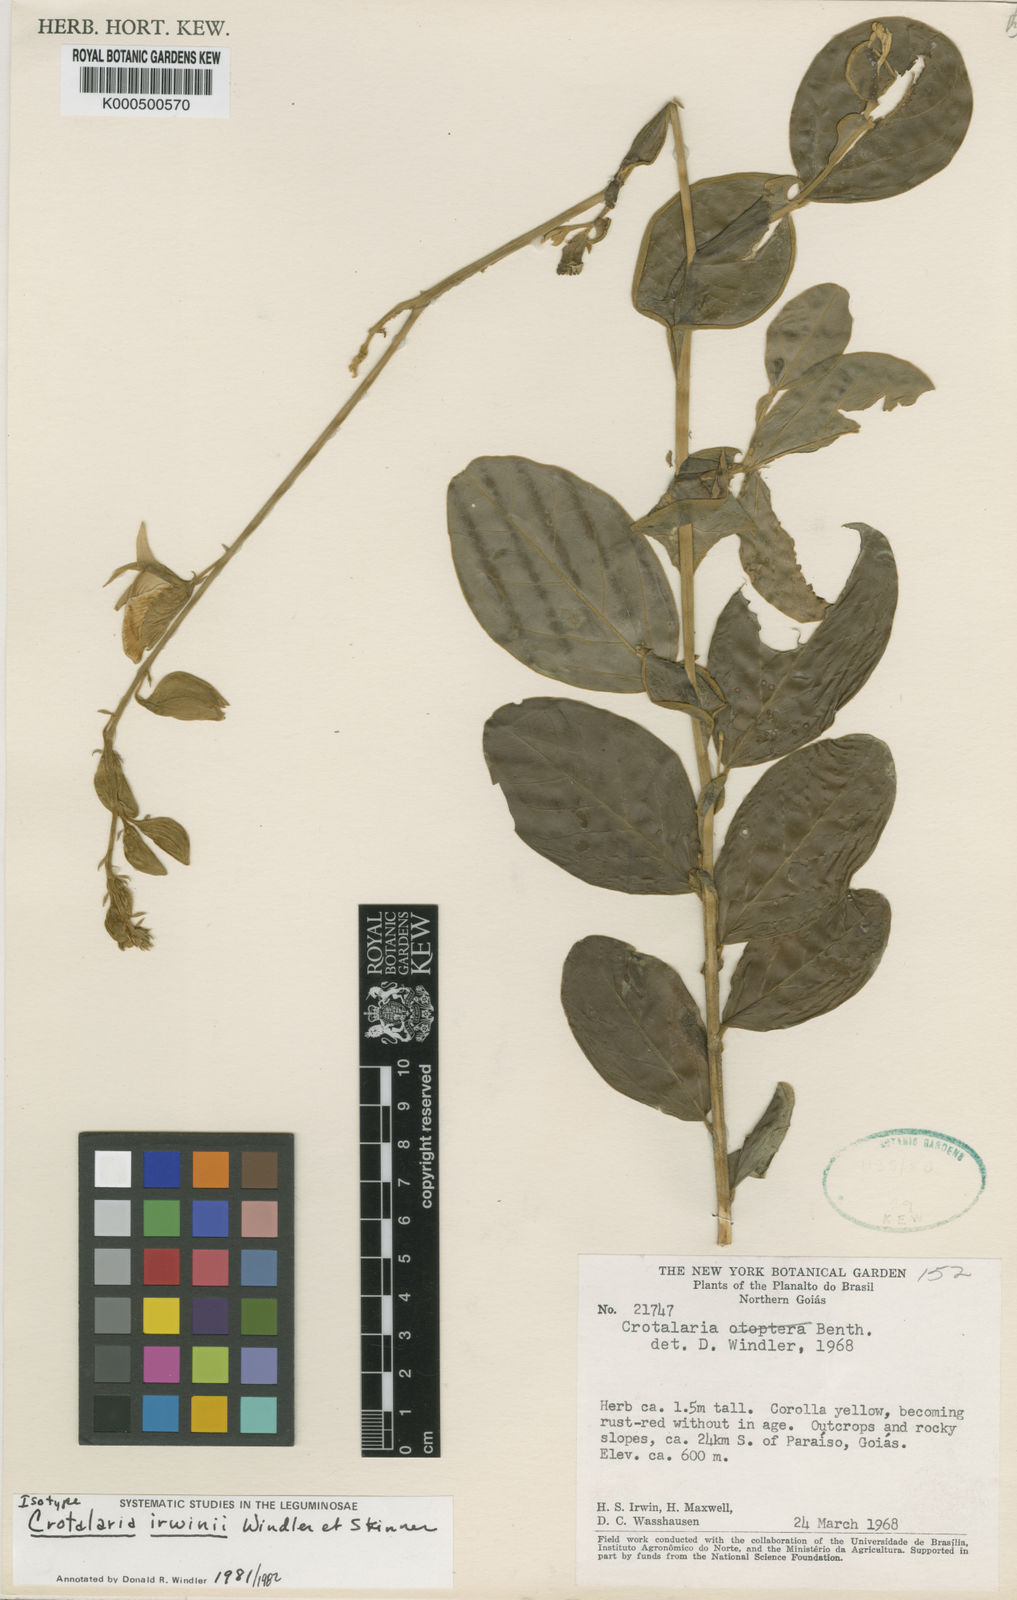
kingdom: Plantae
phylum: Tracheophyta
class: Magnoliopsida
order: Fabales
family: Fabaceae
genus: Crotalaria
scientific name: Crotalaria irwinii
